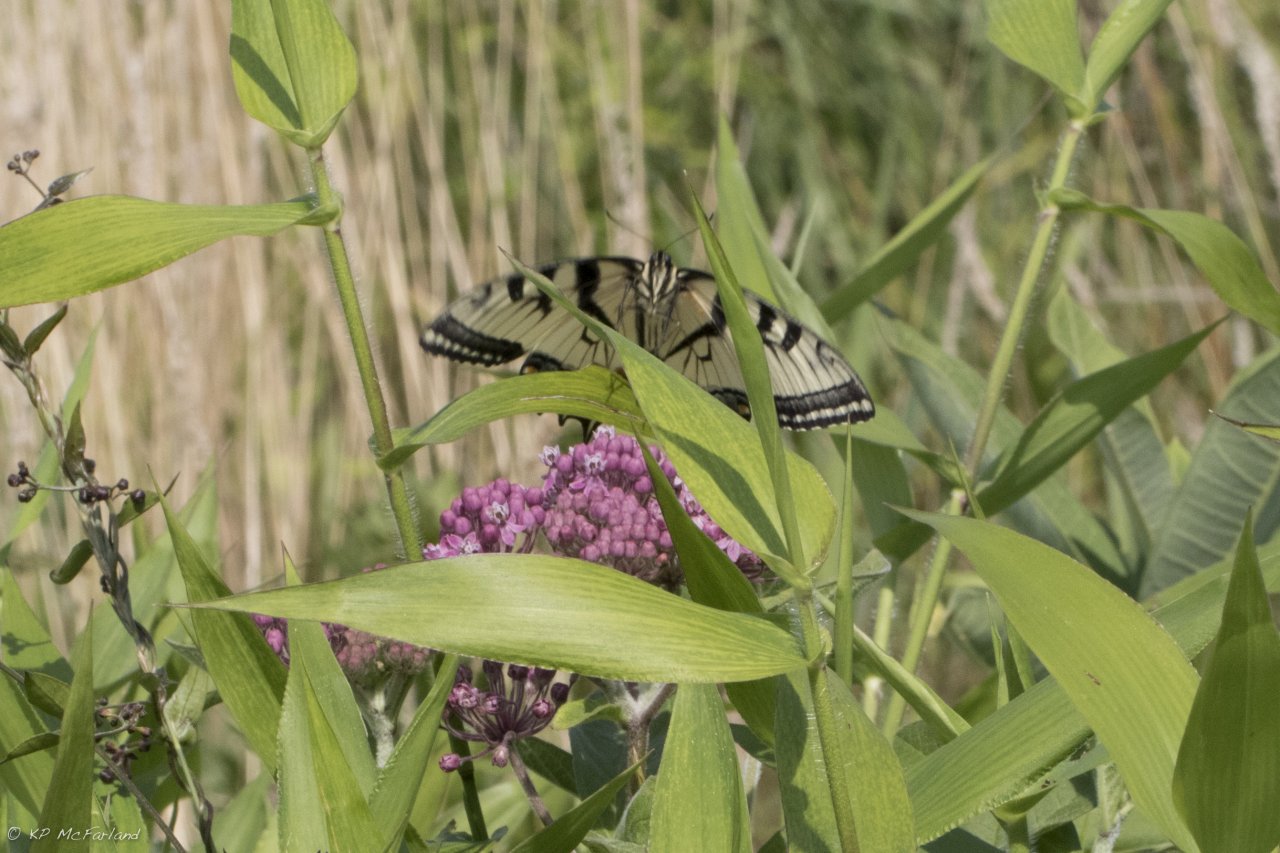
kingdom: Animalia
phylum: Arthropoda
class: Insecta
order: Lepidoptera
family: Papilionidae
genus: Pterourus
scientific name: Pterourus glaucus
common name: Eastern Tiger Swallowtail
